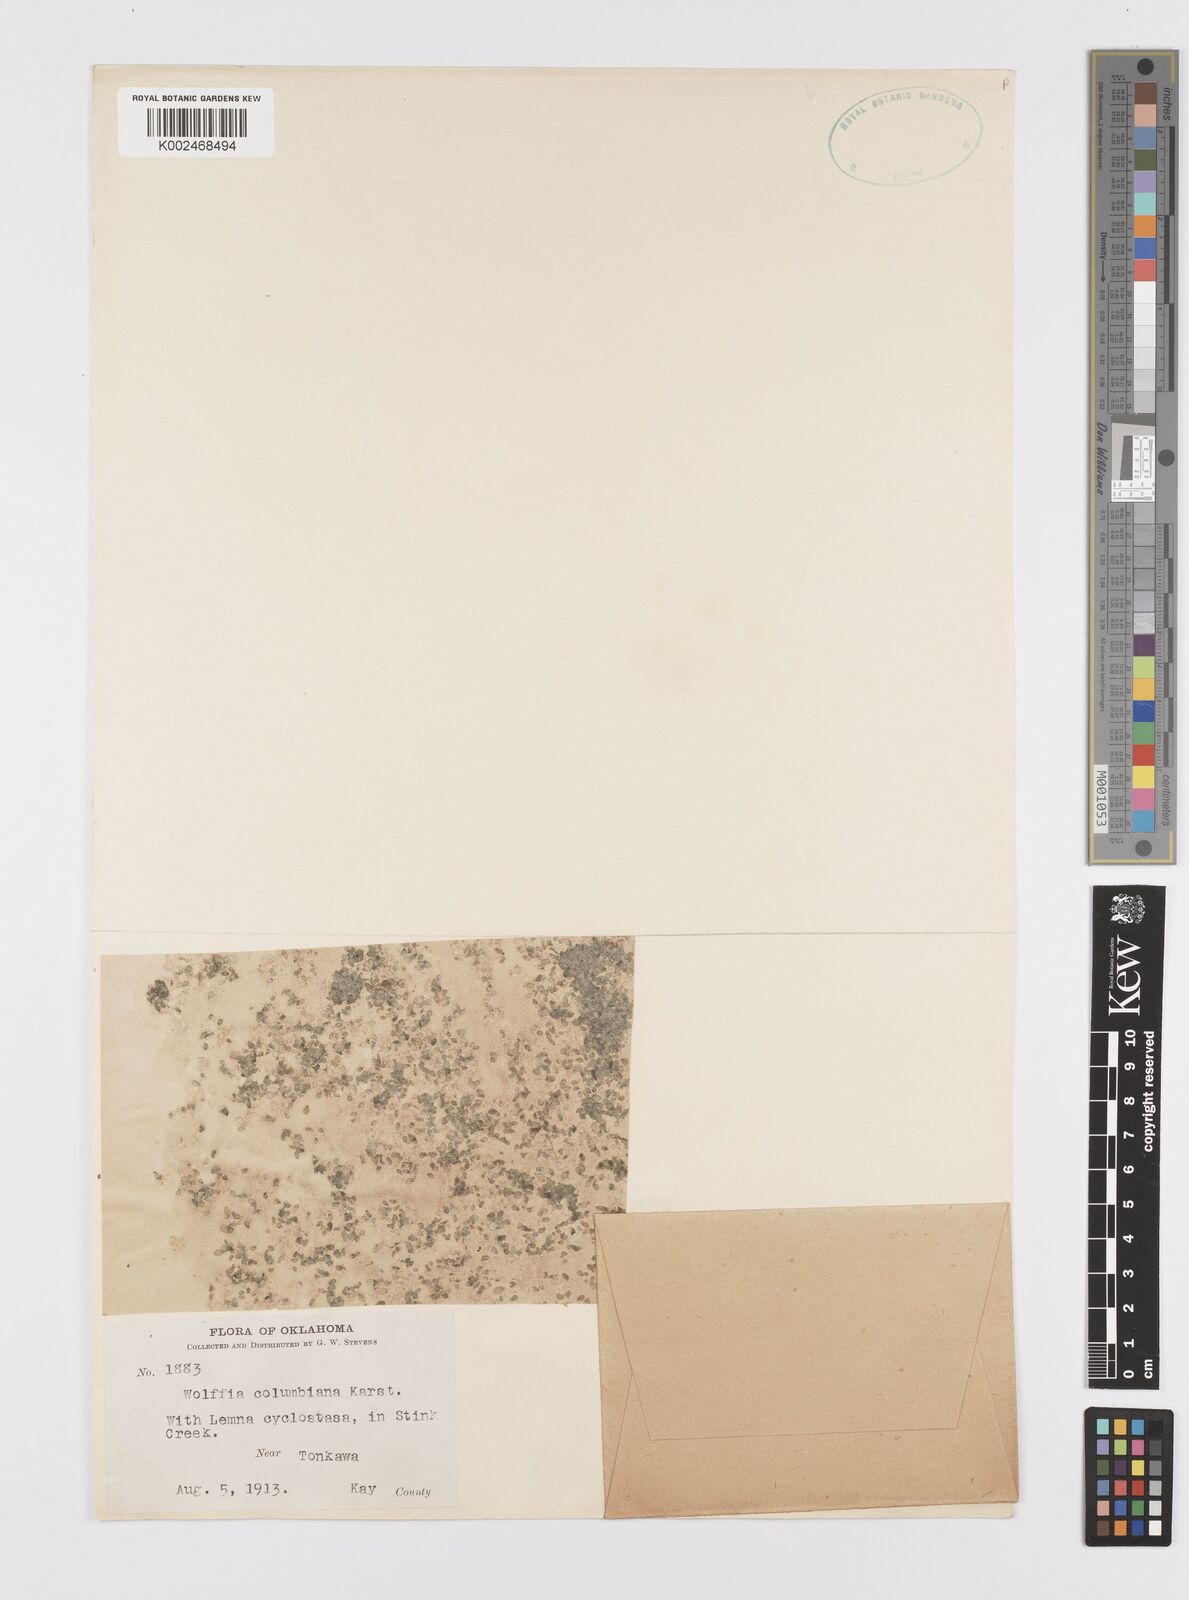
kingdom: Plantae
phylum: Tracheophyta
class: Liliopsida
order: Alismatales
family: Araceae
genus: Wolffia
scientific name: Wolffia columbiana
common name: Columbia watermeal
